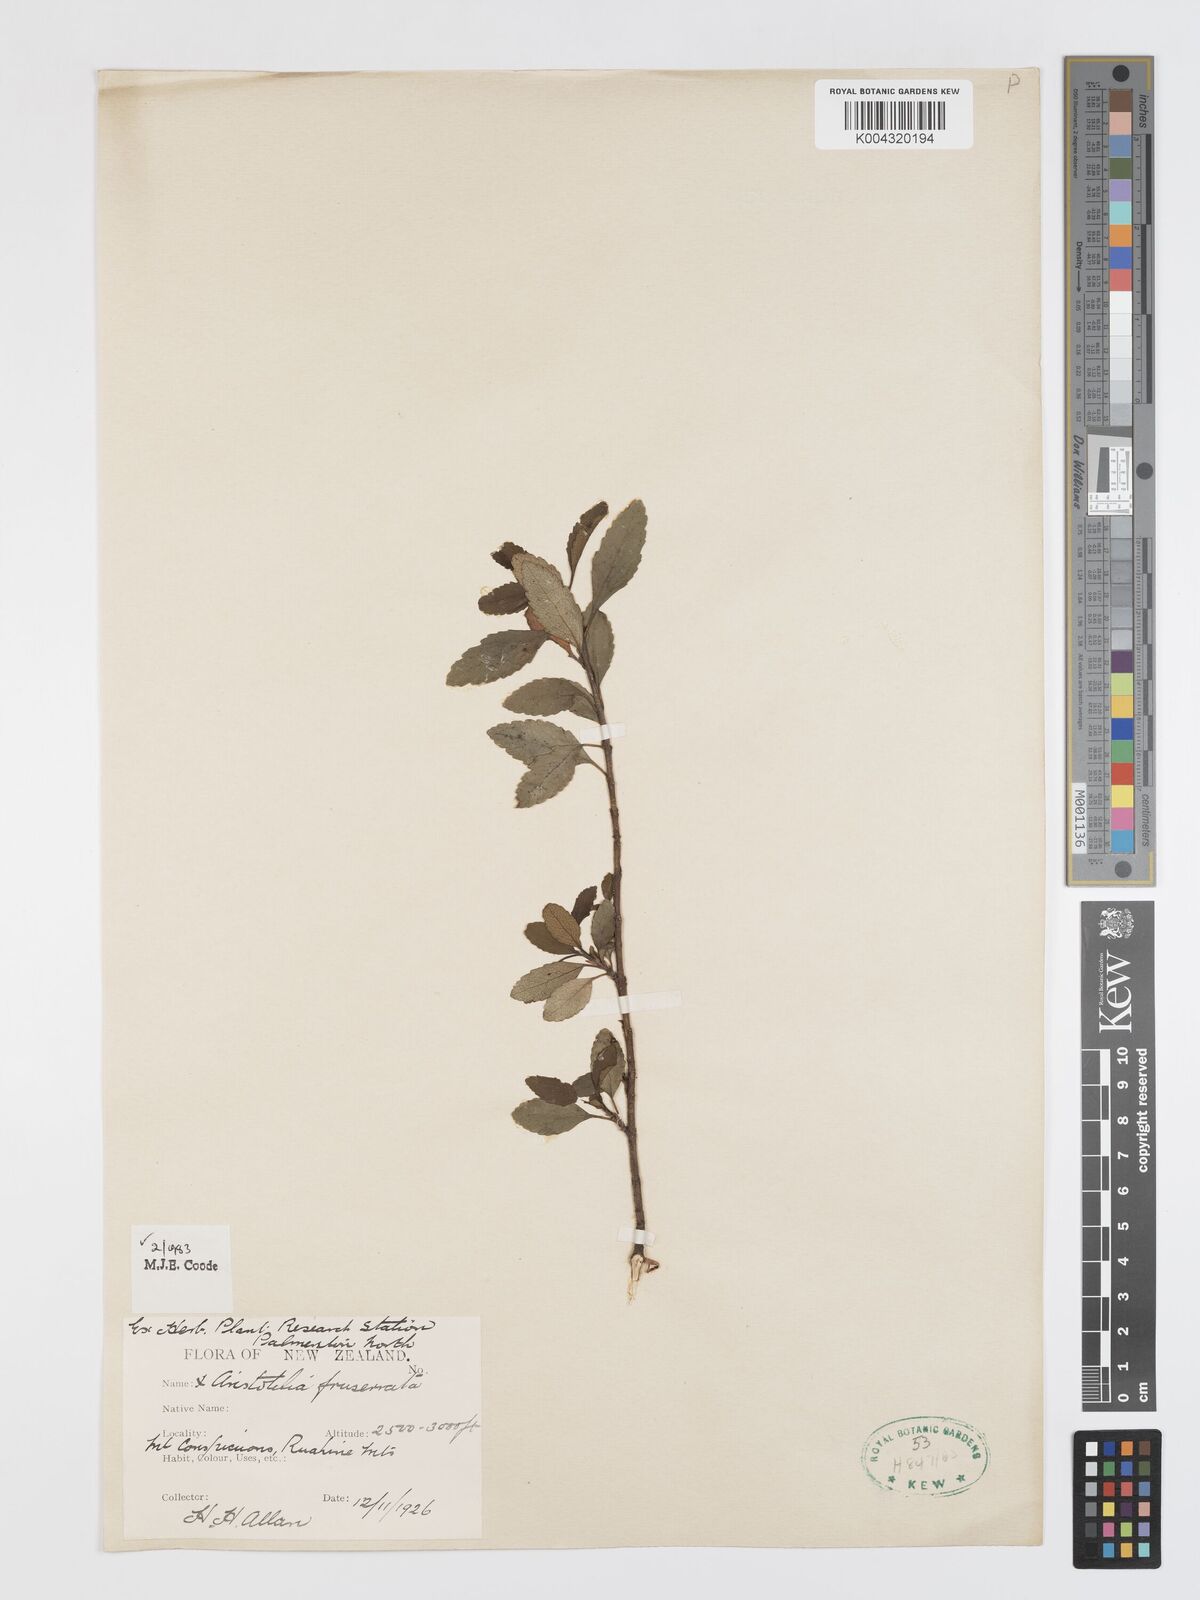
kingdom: Plantae
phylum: Tracheophyta
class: Magnoliopsida
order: Oxalidales
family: Elaeocarpaceae
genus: Aristotelia
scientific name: Aristotelia fruticosa
